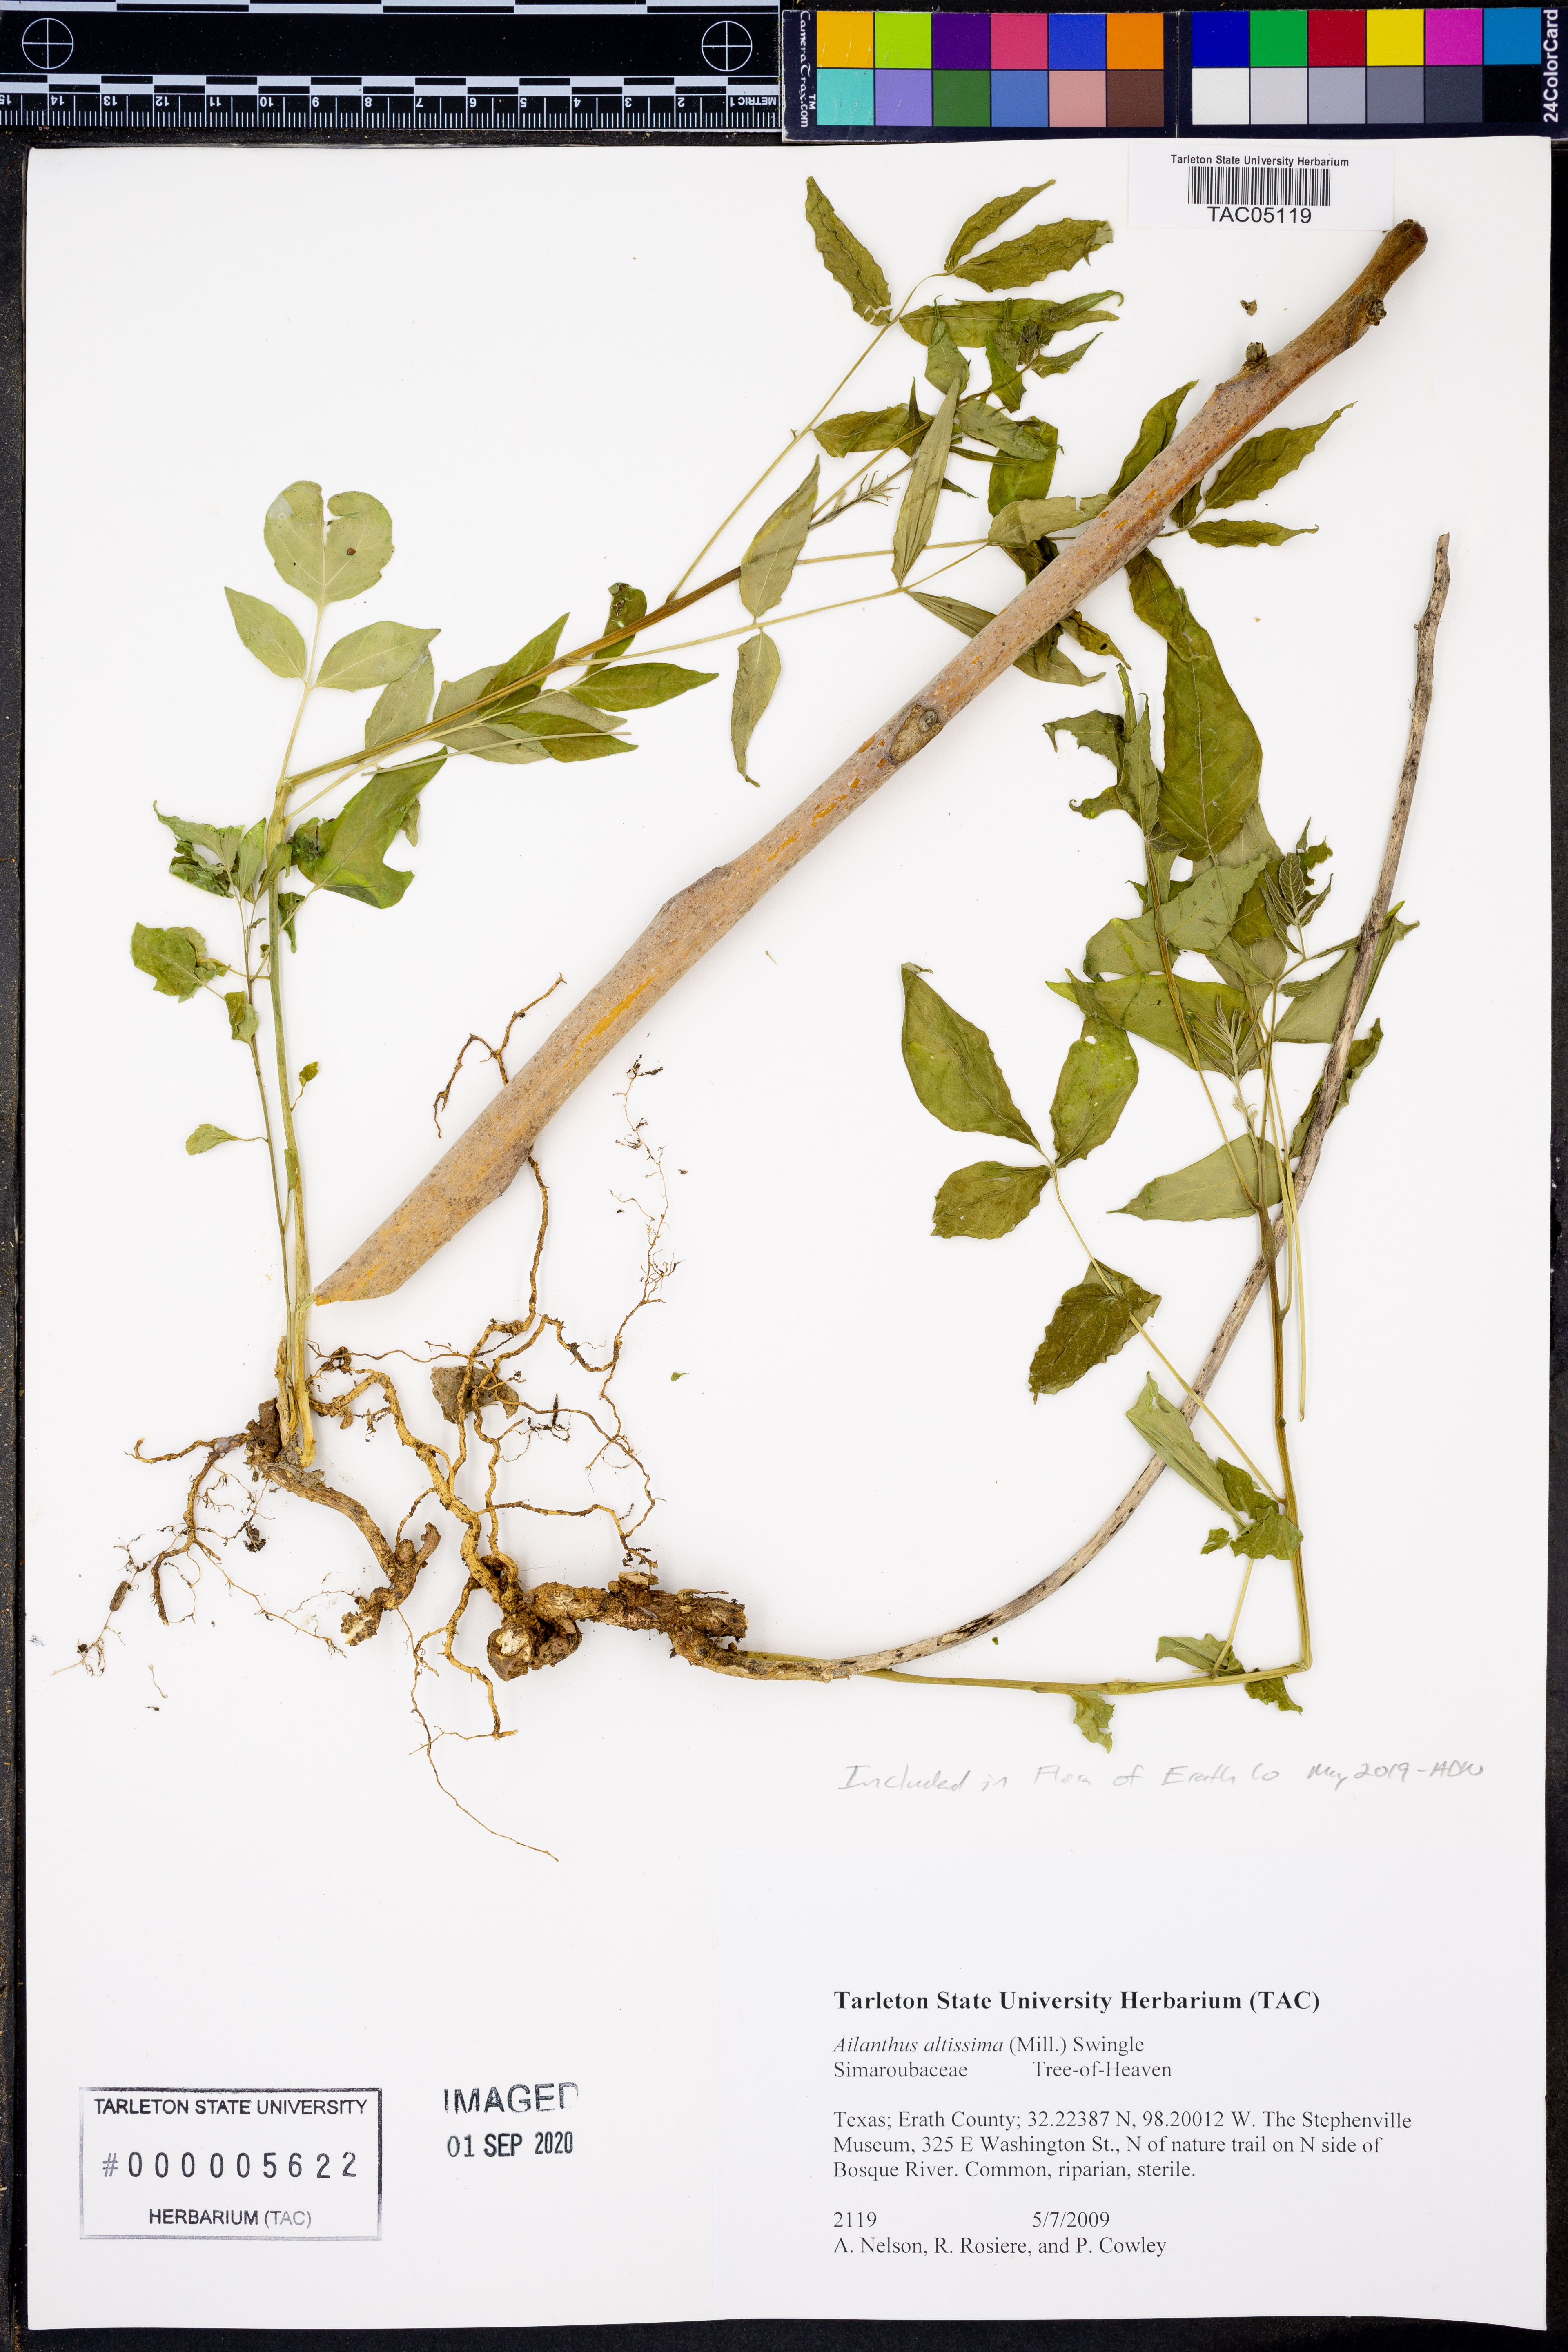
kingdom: Plantae
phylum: Tracheophyta
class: Magnoliopsida
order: Sapindales
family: Simaroubaceae
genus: Ailanthus
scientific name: Ailanthus altissima
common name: Tree-of-heaven
